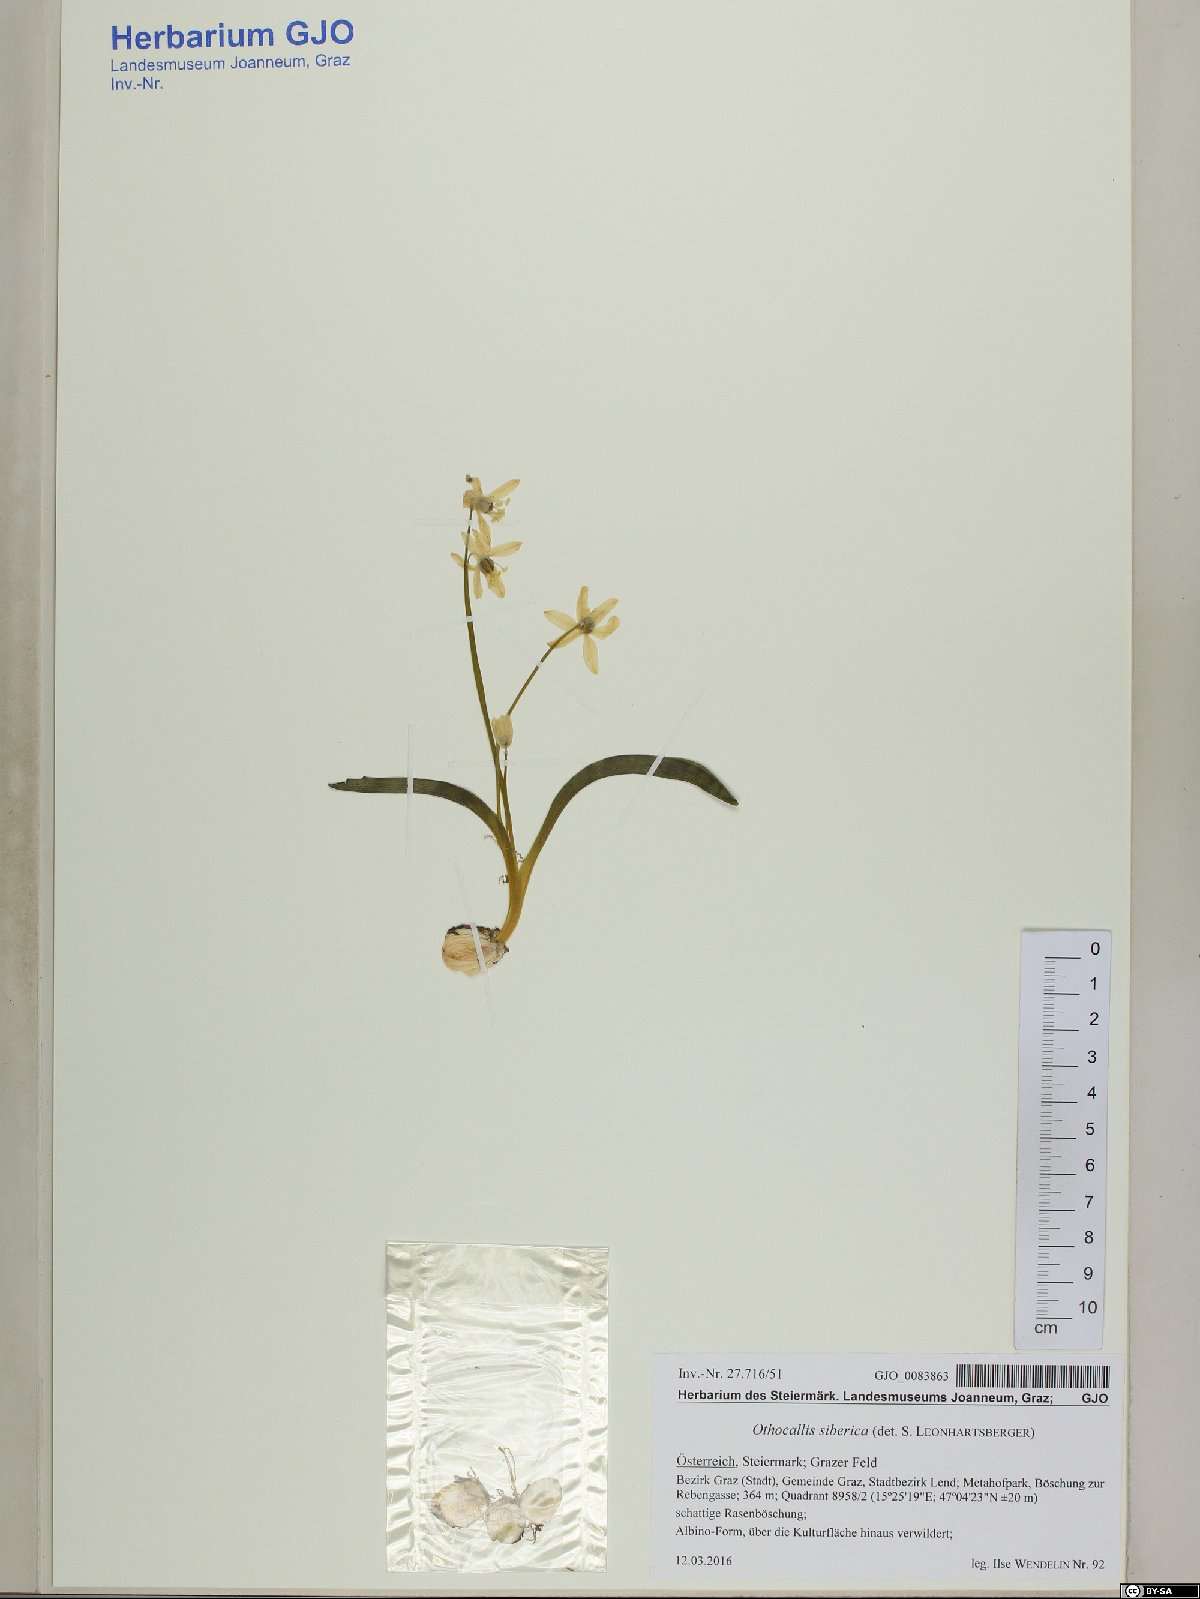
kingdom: Plantae
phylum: Tracheophyta
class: Liliopsida
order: Asparagales
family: Asparagaceae
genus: Scilla
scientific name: Scilla siberica
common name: Siberian squill
